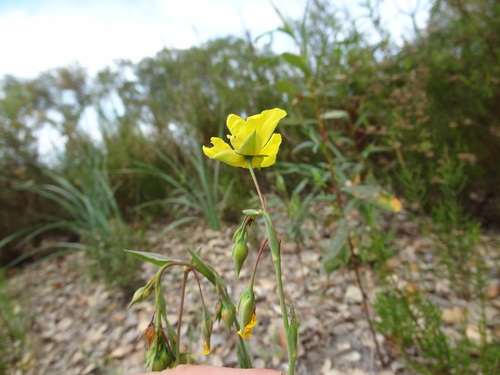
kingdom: Plantae
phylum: Tracheophyta
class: Magnoliopsida
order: Malvales
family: Cistaceae
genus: Tuberaria
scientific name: Tuberaria lignosa
